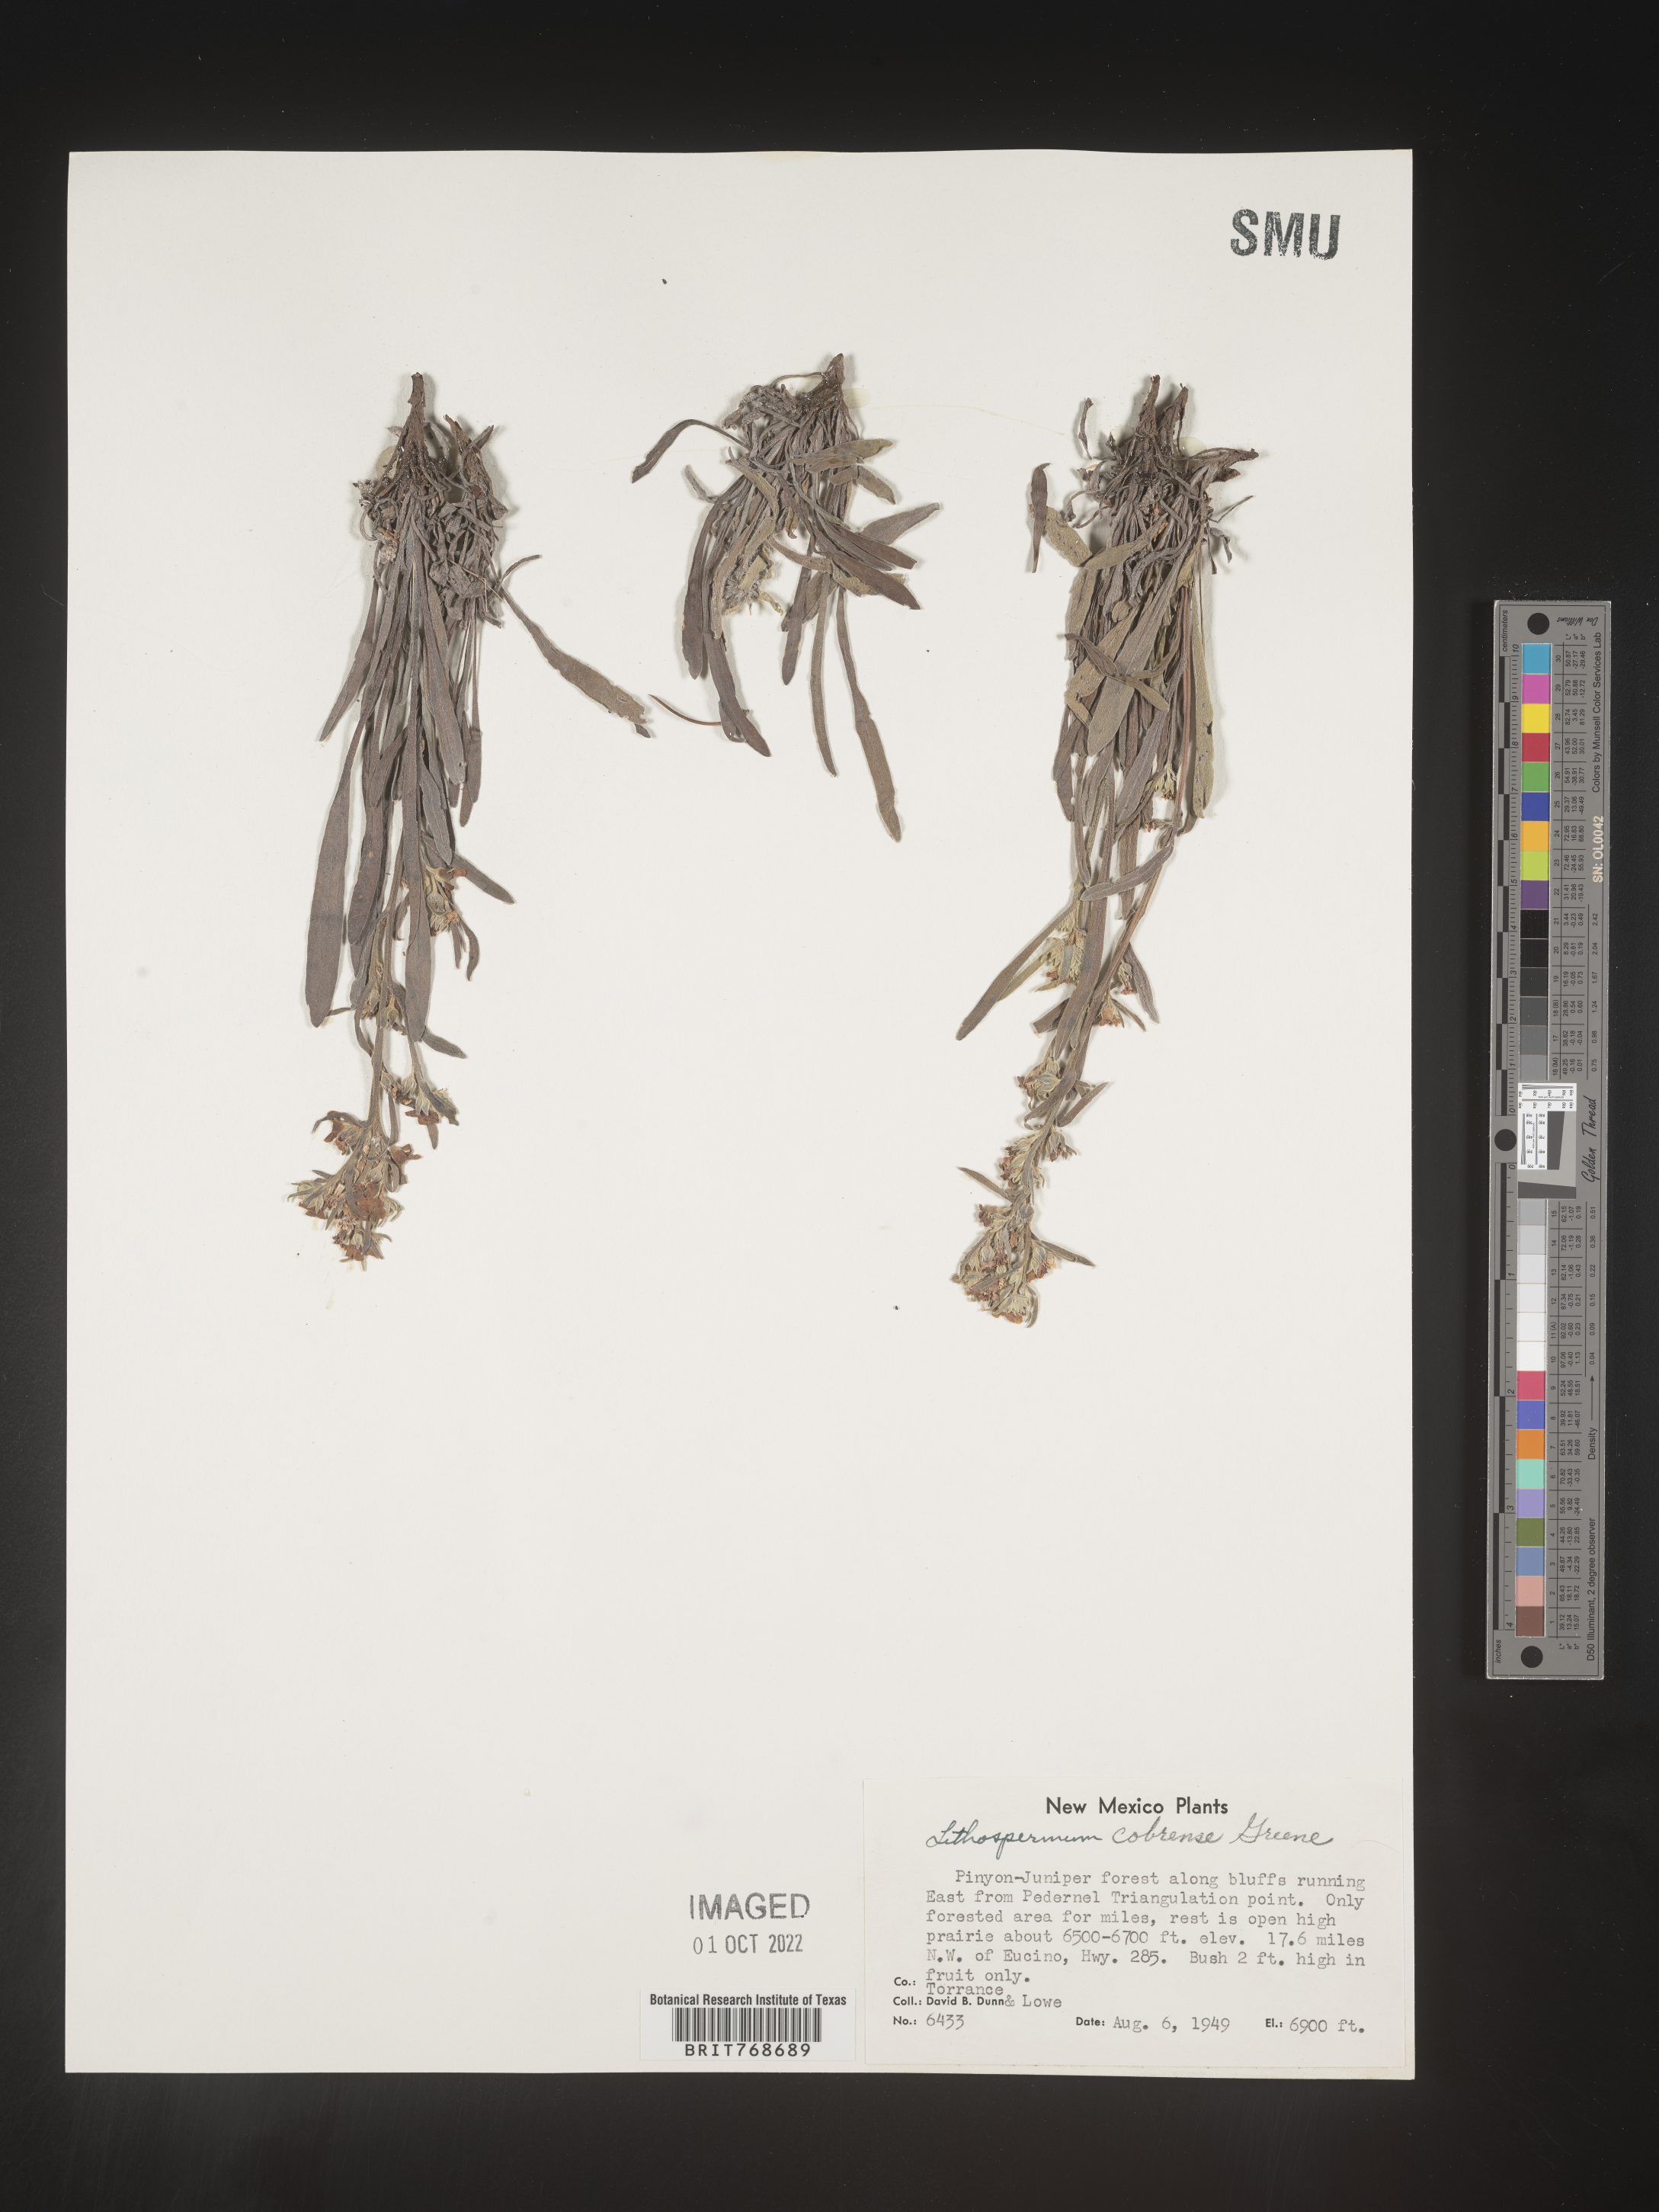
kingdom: Plantae
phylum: Tracheophyta
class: Magnoliopsida
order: Boraginales
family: Boraginaceae
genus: Lithospermum
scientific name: Lithospermum cobrense
